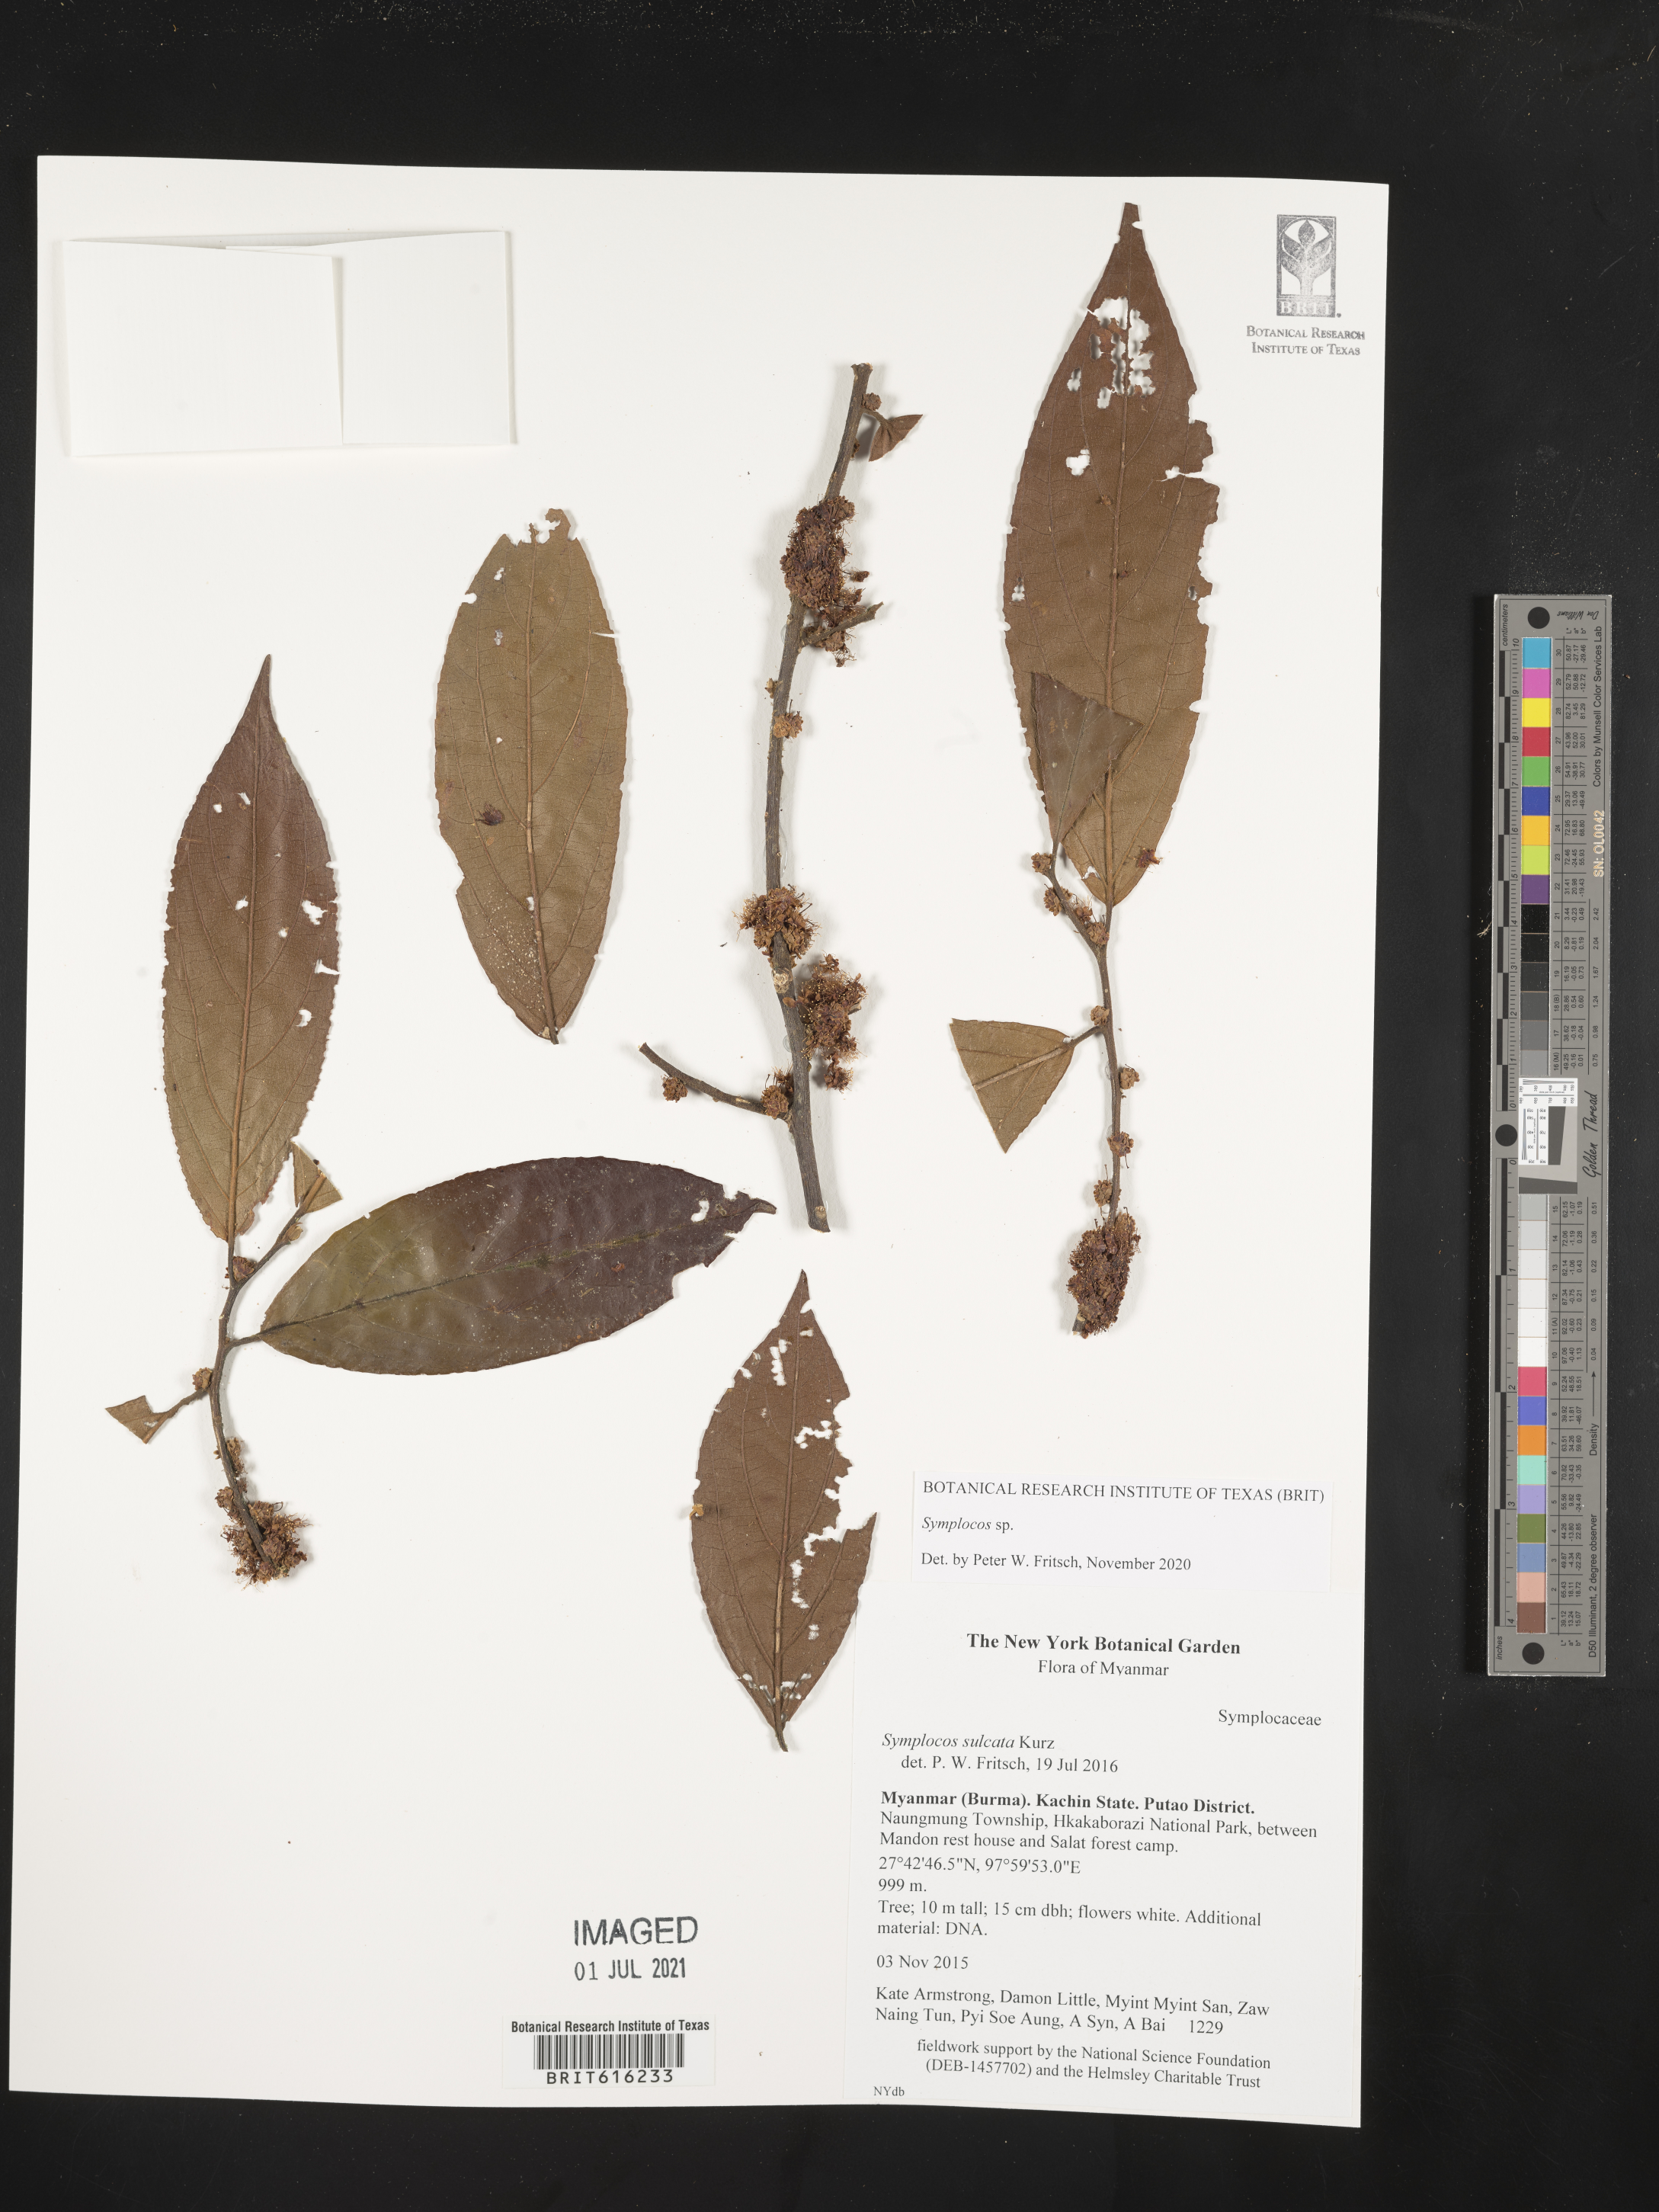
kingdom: Plantae
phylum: Tracheophyta
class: Magnoliopsida
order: Ericales
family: Symplocaceae
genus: Symplocos
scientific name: Symplocos
